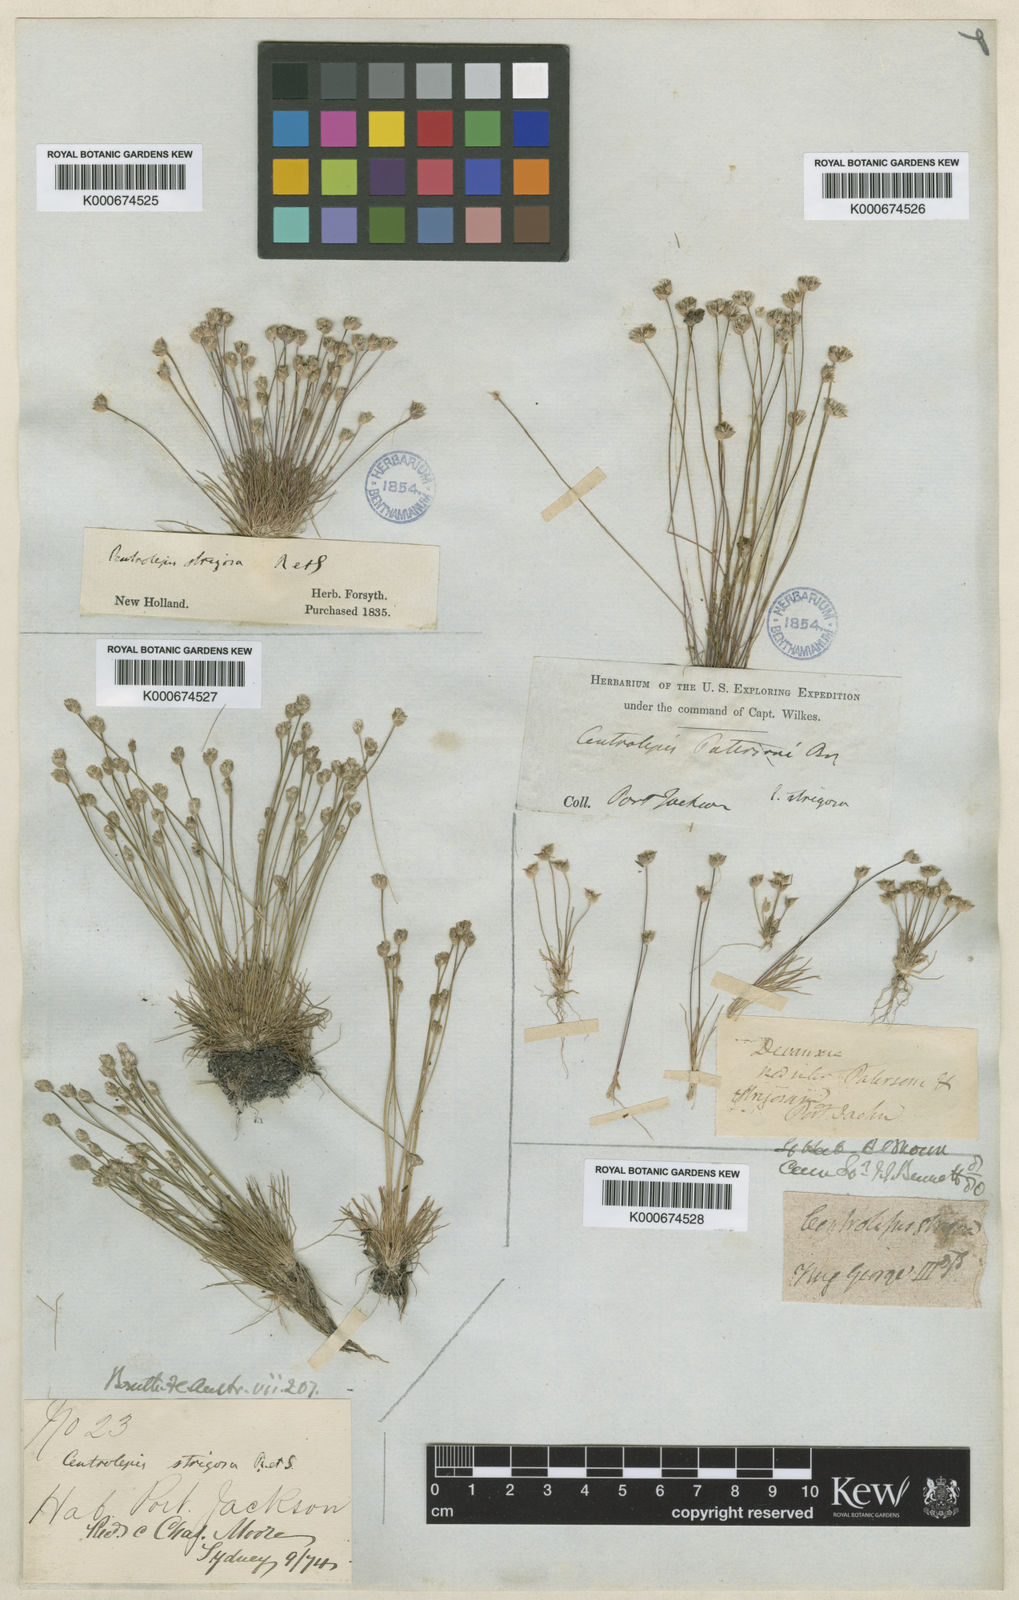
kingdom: Plantae
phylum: Tracheophyta
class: Liliopsida
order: Poales
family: Restionaceae
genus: Centrolepis
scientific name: Centrolepis strigosa
